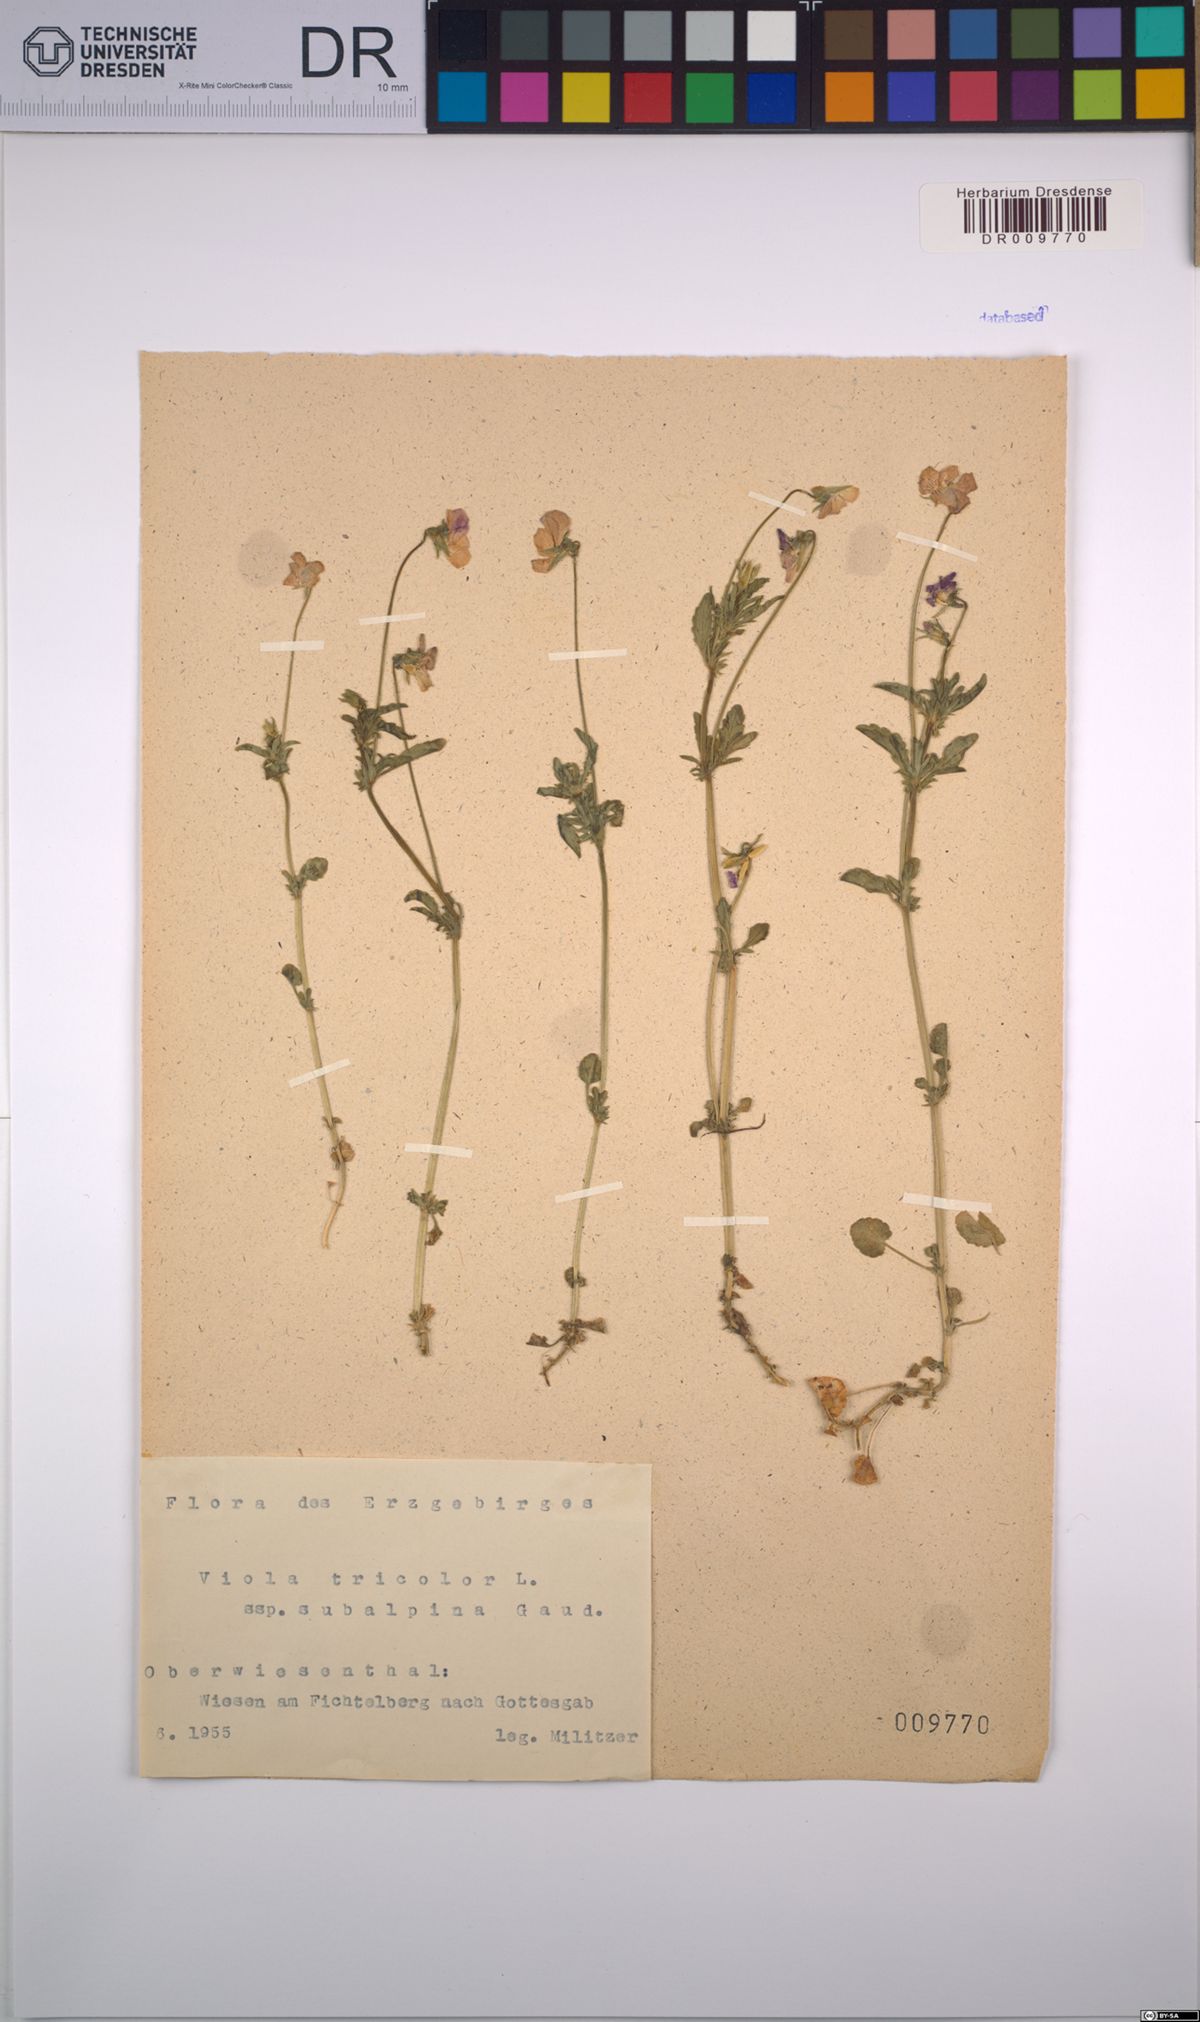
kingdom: Plantae
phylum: Tracheophyta
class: Magnoliopsida
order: Malpighiales
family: Violaceae
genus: Viola
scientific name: Viola tricolor
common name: Pansy
